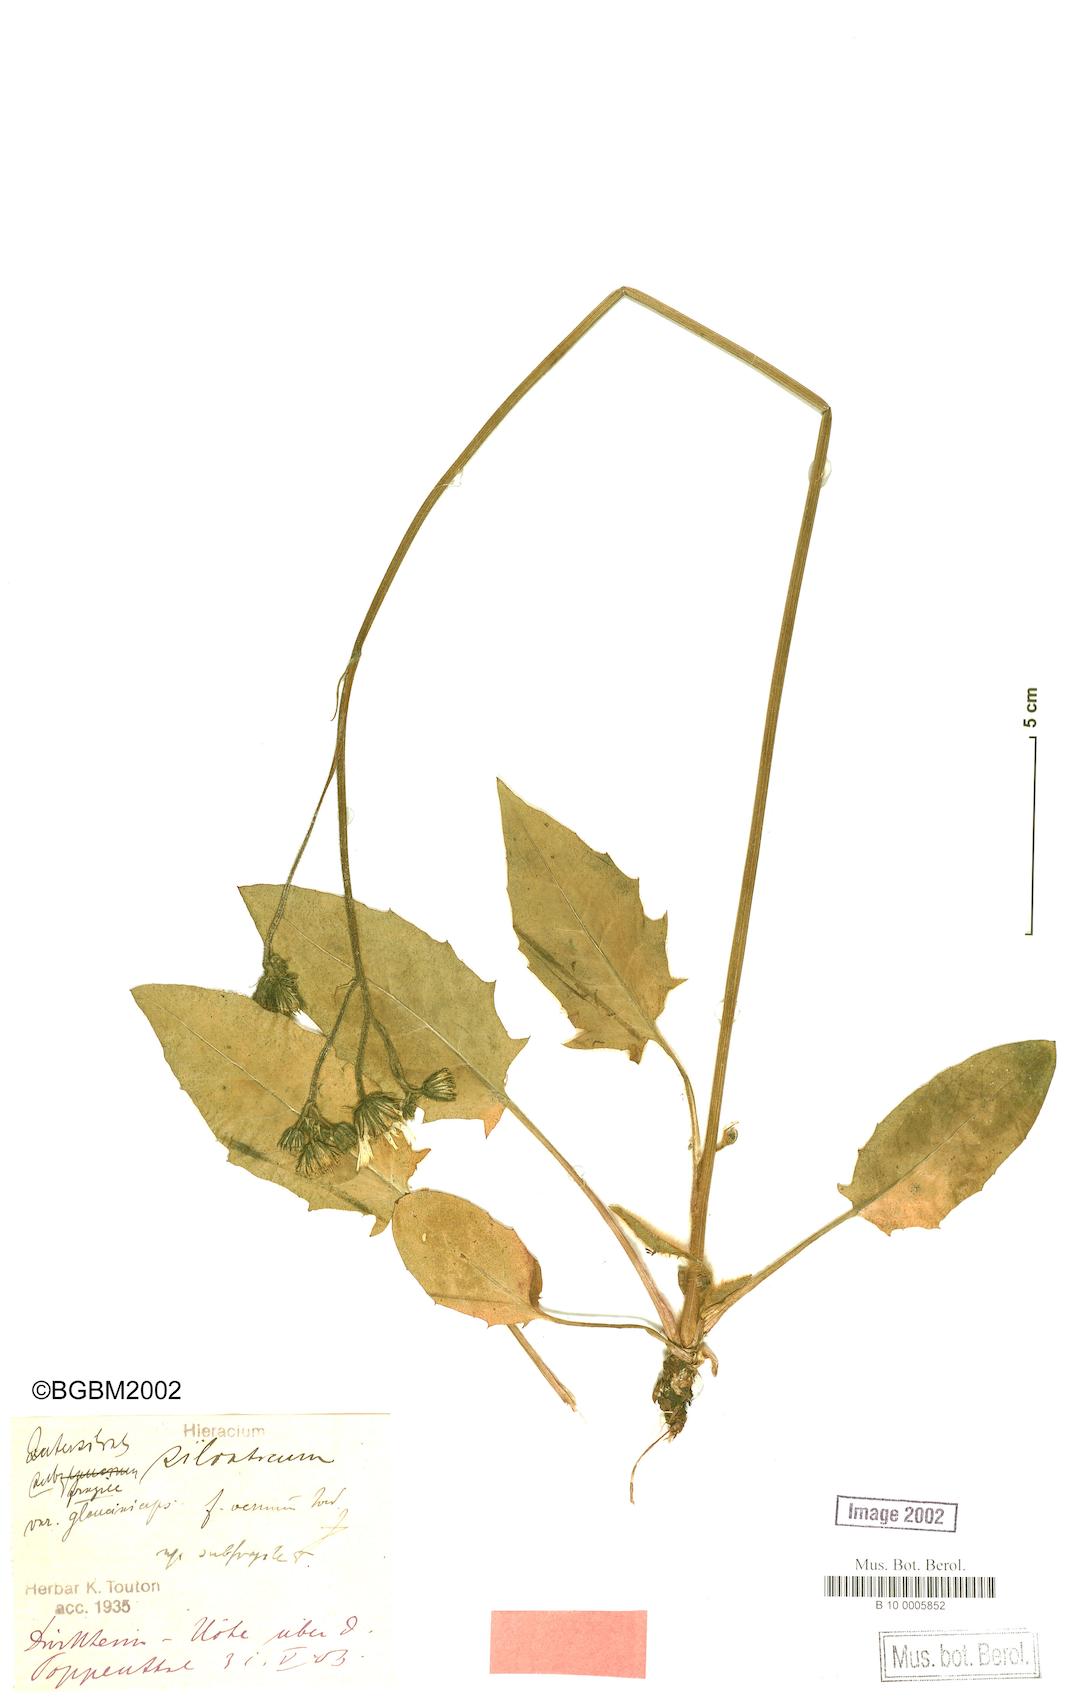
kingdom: Plantae
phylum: Tracheophyta
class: Magnoliopsida
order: Asterales
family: Asteraceae
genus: Hieracium
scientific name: Hieracium glaucinum
